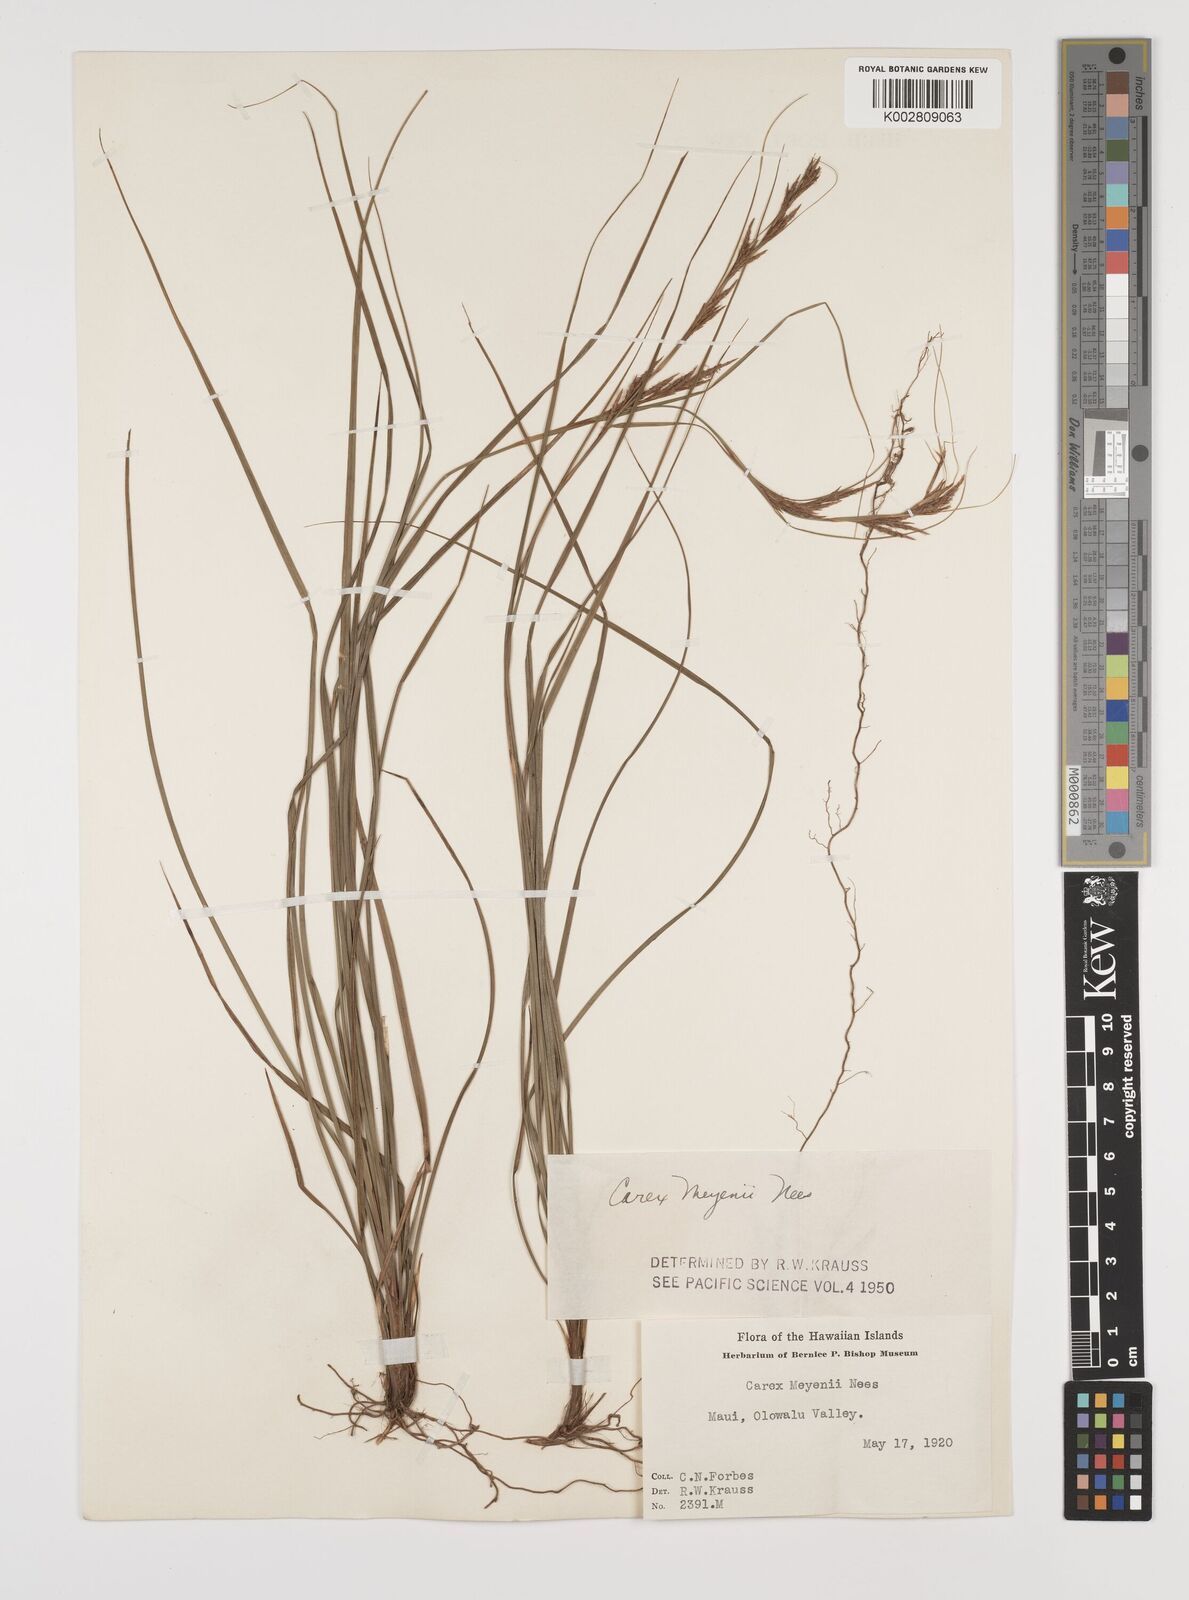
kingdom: Plantae
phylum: Tracheophyta
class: Liliopsida
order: Poales
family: Cyperaceae
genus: Carex
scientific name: Carex brunnea
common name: Greater brown sedge
